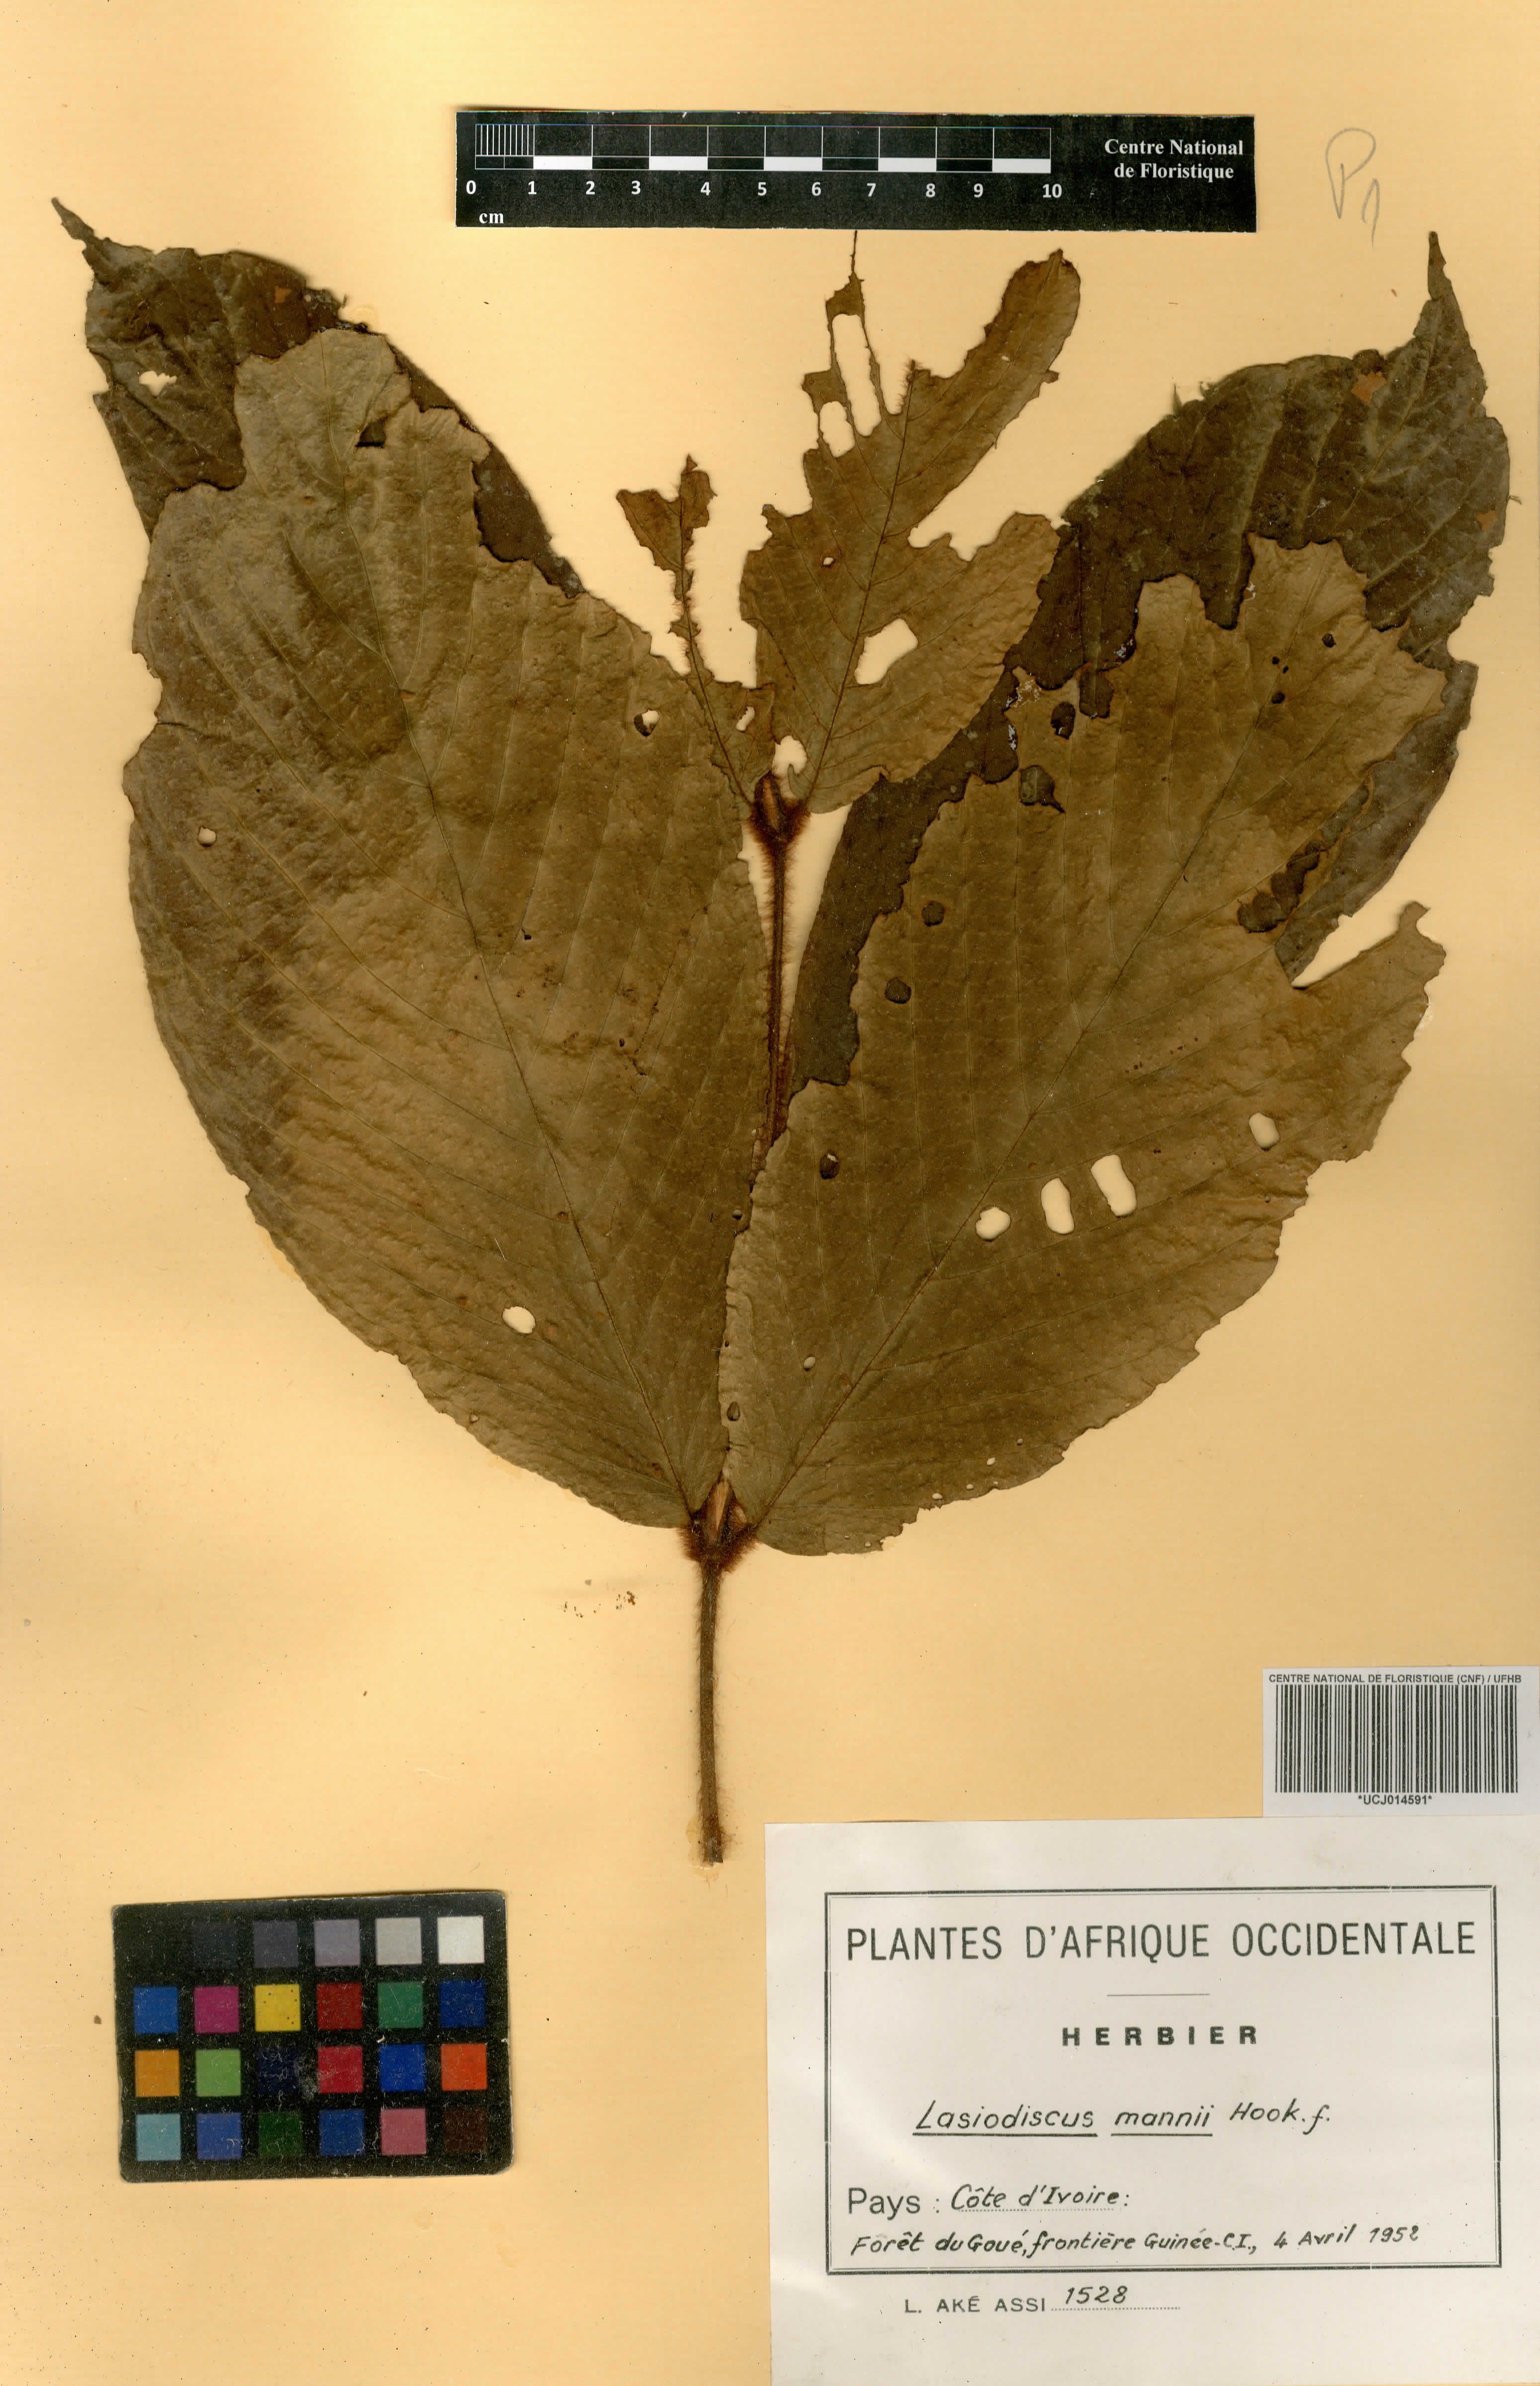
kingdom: Plantae
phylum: Tracheophyta
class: Magnoliopsida
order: Rosales
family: Rhamnaceae
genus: Lasiodiscus
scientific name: Lasiodiscus mannii
